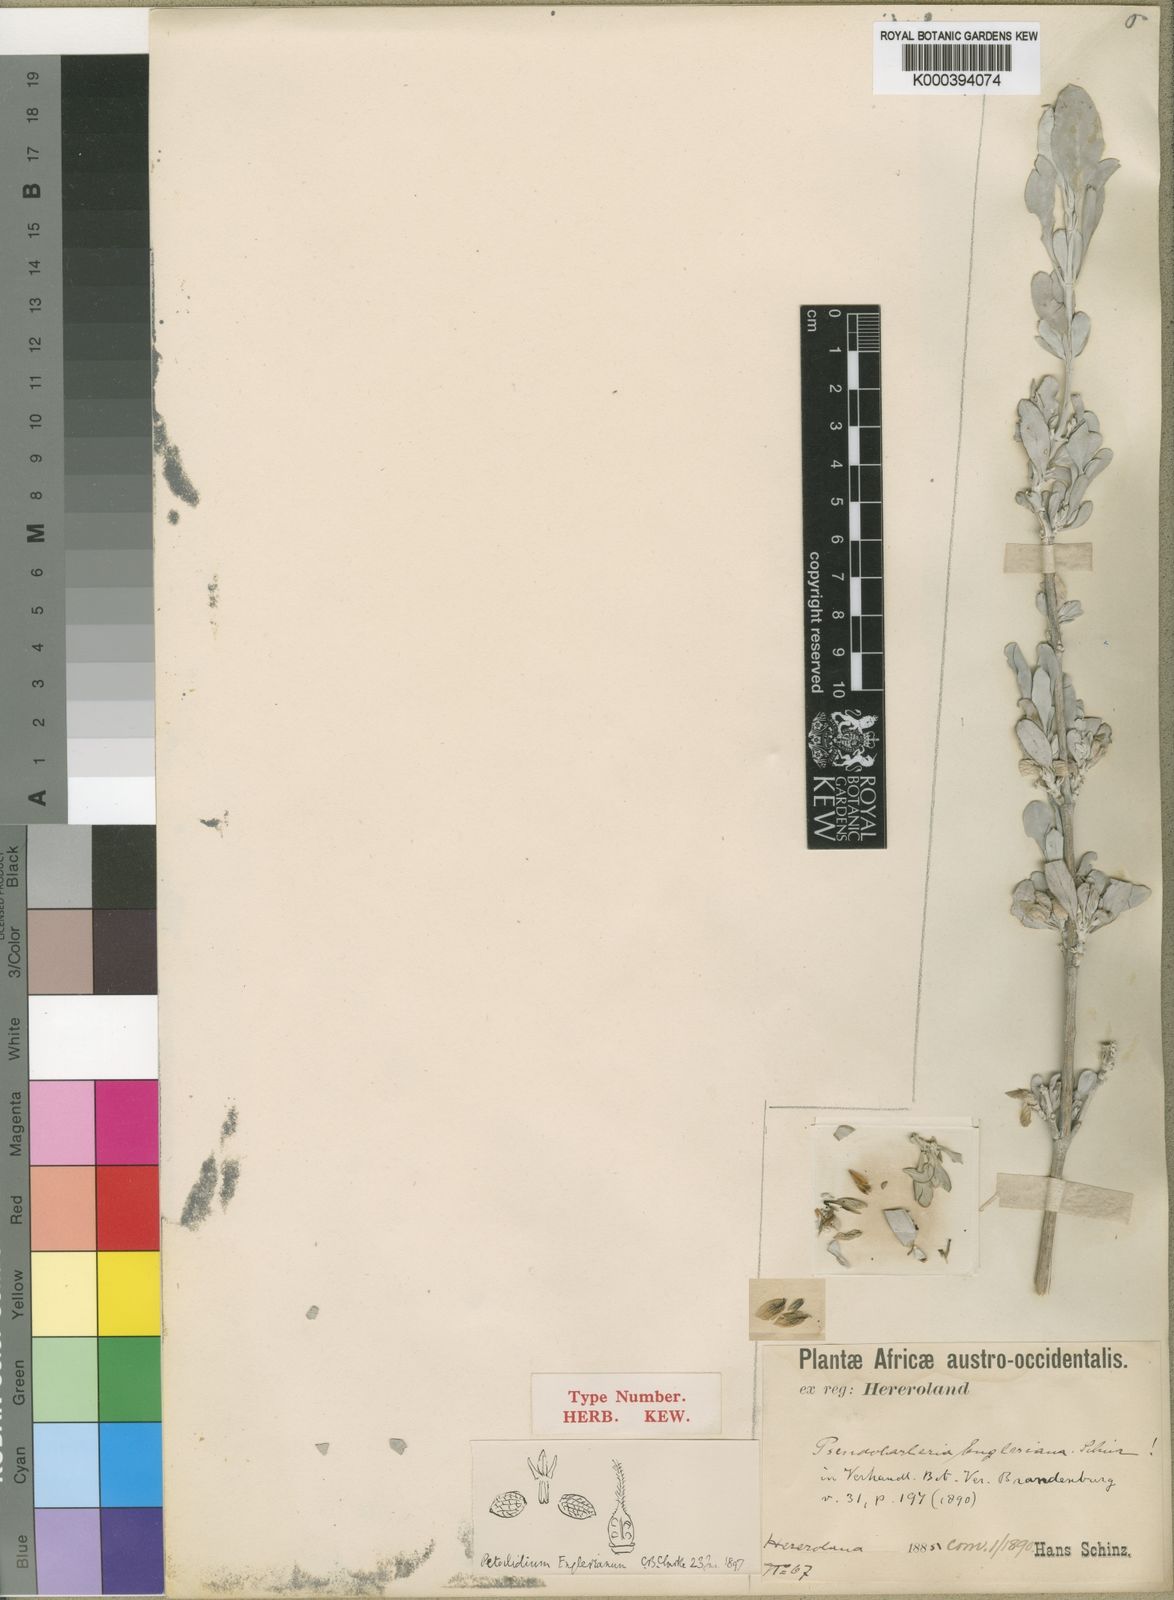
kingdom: Plantae
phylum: Tracheophyta
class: Magnoliopsida
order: Lamiales
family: Acanthaceae
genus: Petalidium
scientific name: Petalidium englerianum
